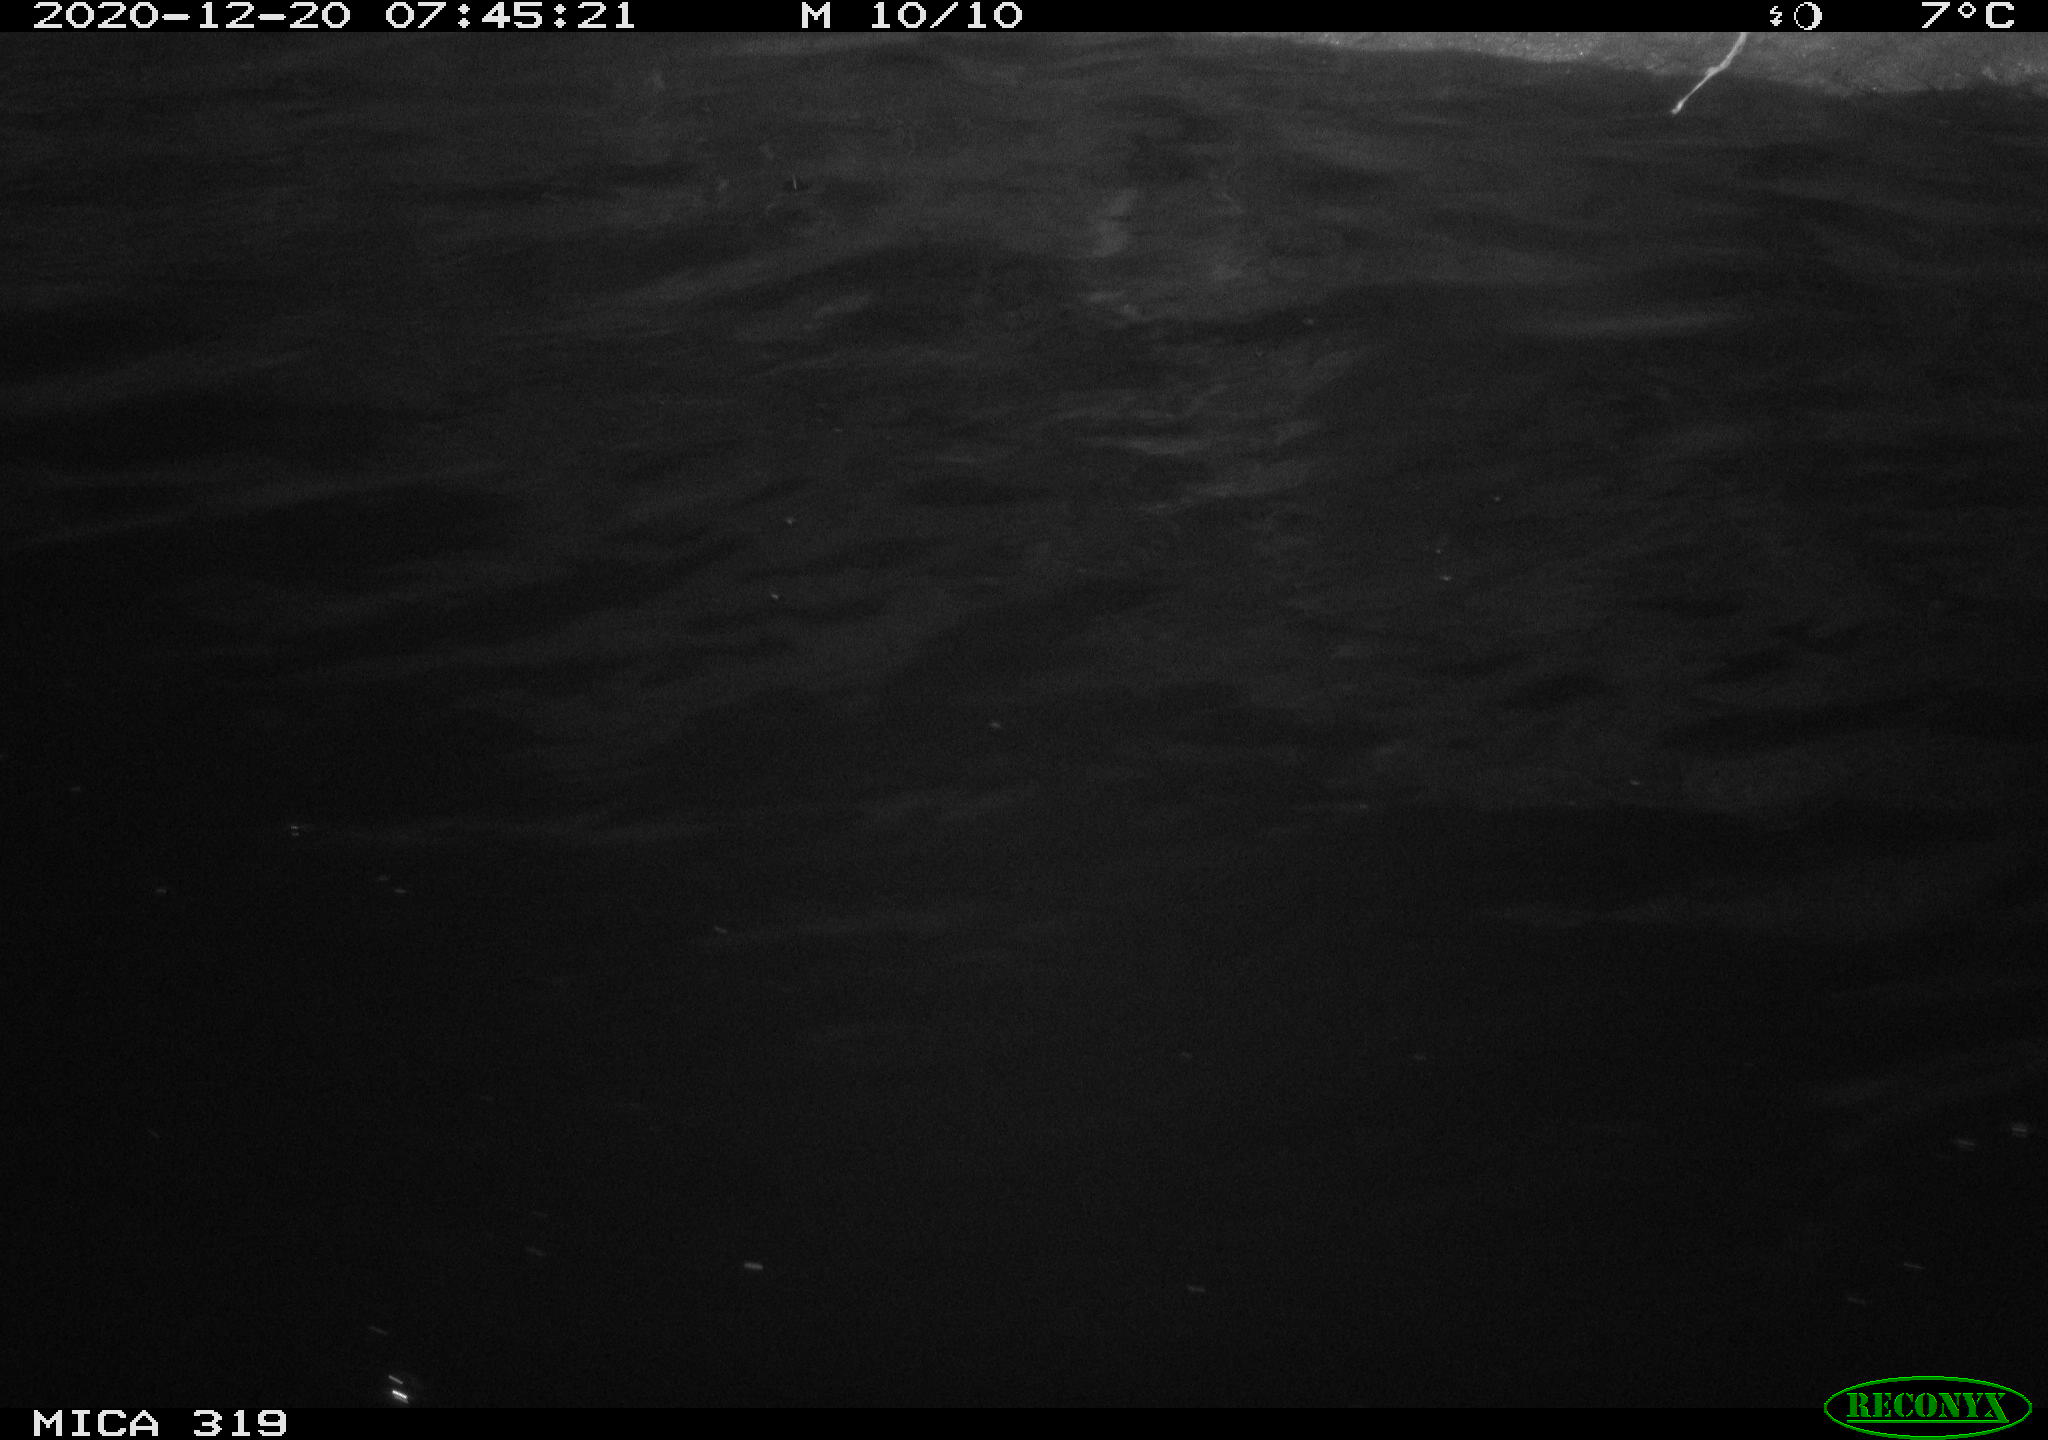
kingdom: Animalia
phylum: Chordata
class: Aves
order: Anseriformes
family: Anatidae
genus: Anas
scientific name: Anas platyrhynchos
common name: Mallard
